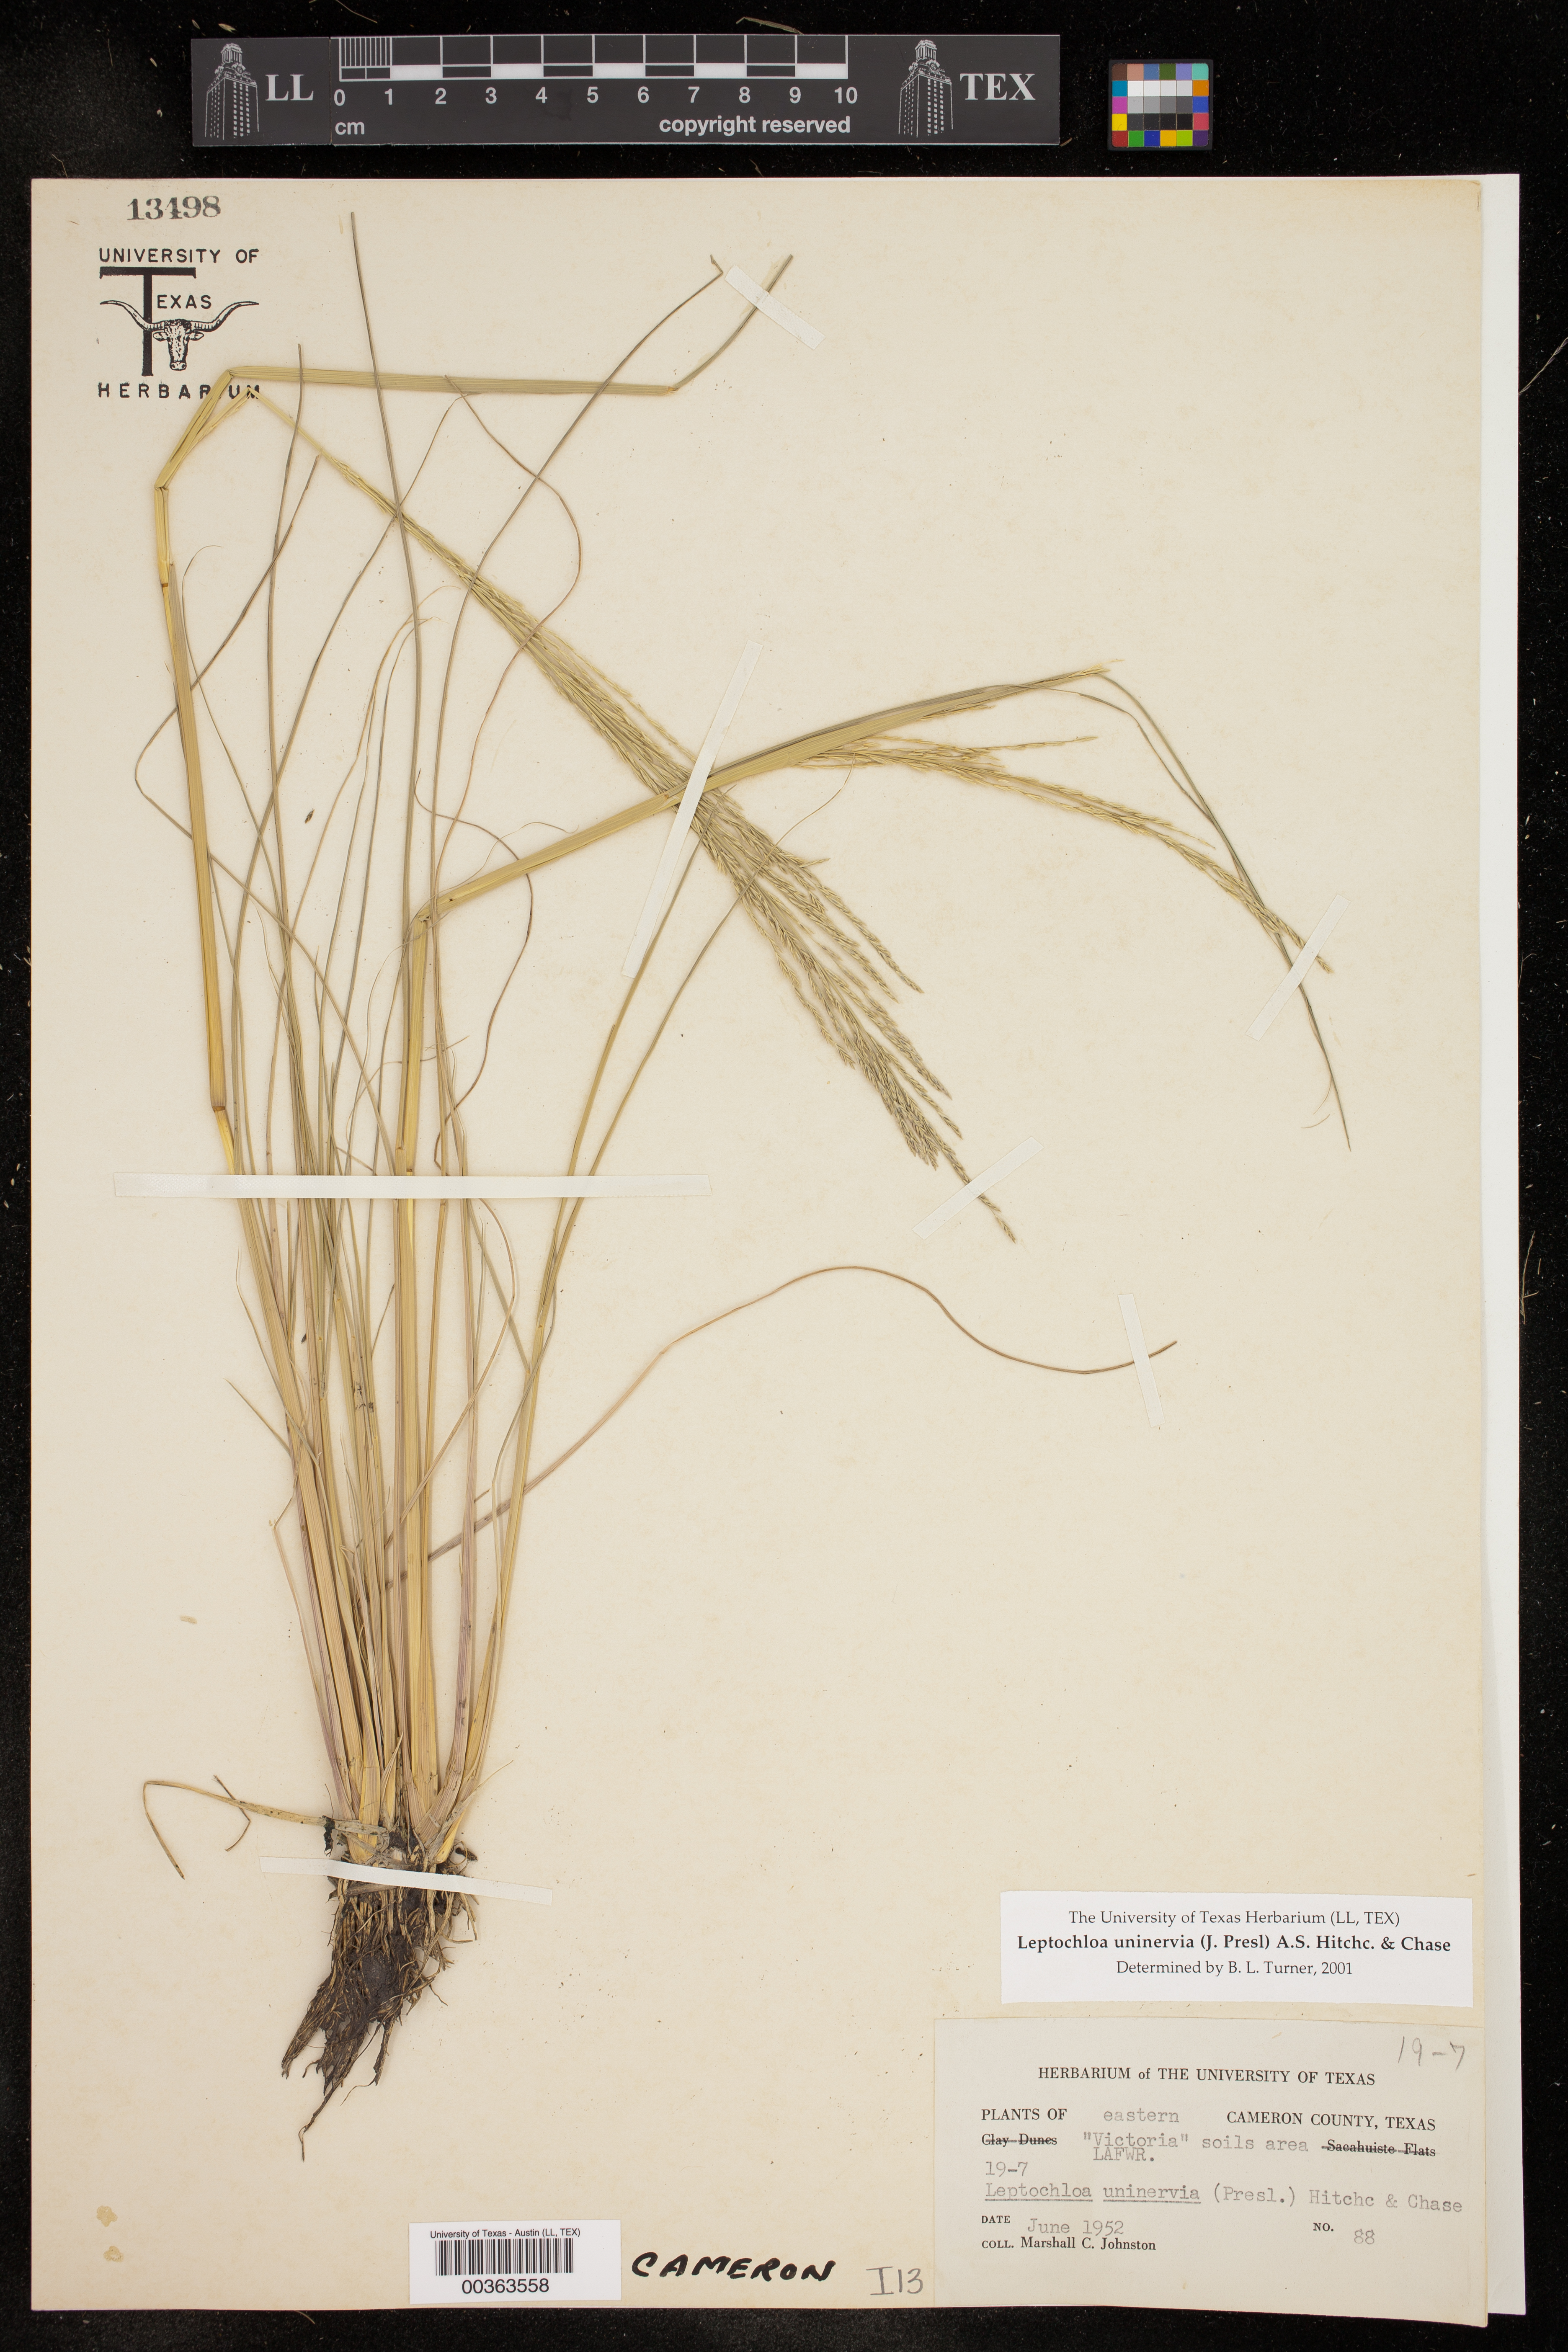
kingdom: Plantae
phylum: Tracheophyta
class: Liliopsida
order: Poales
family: Poaceae
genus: Diplachne
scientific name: Diplachne fusca
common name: Brown beetle grass
